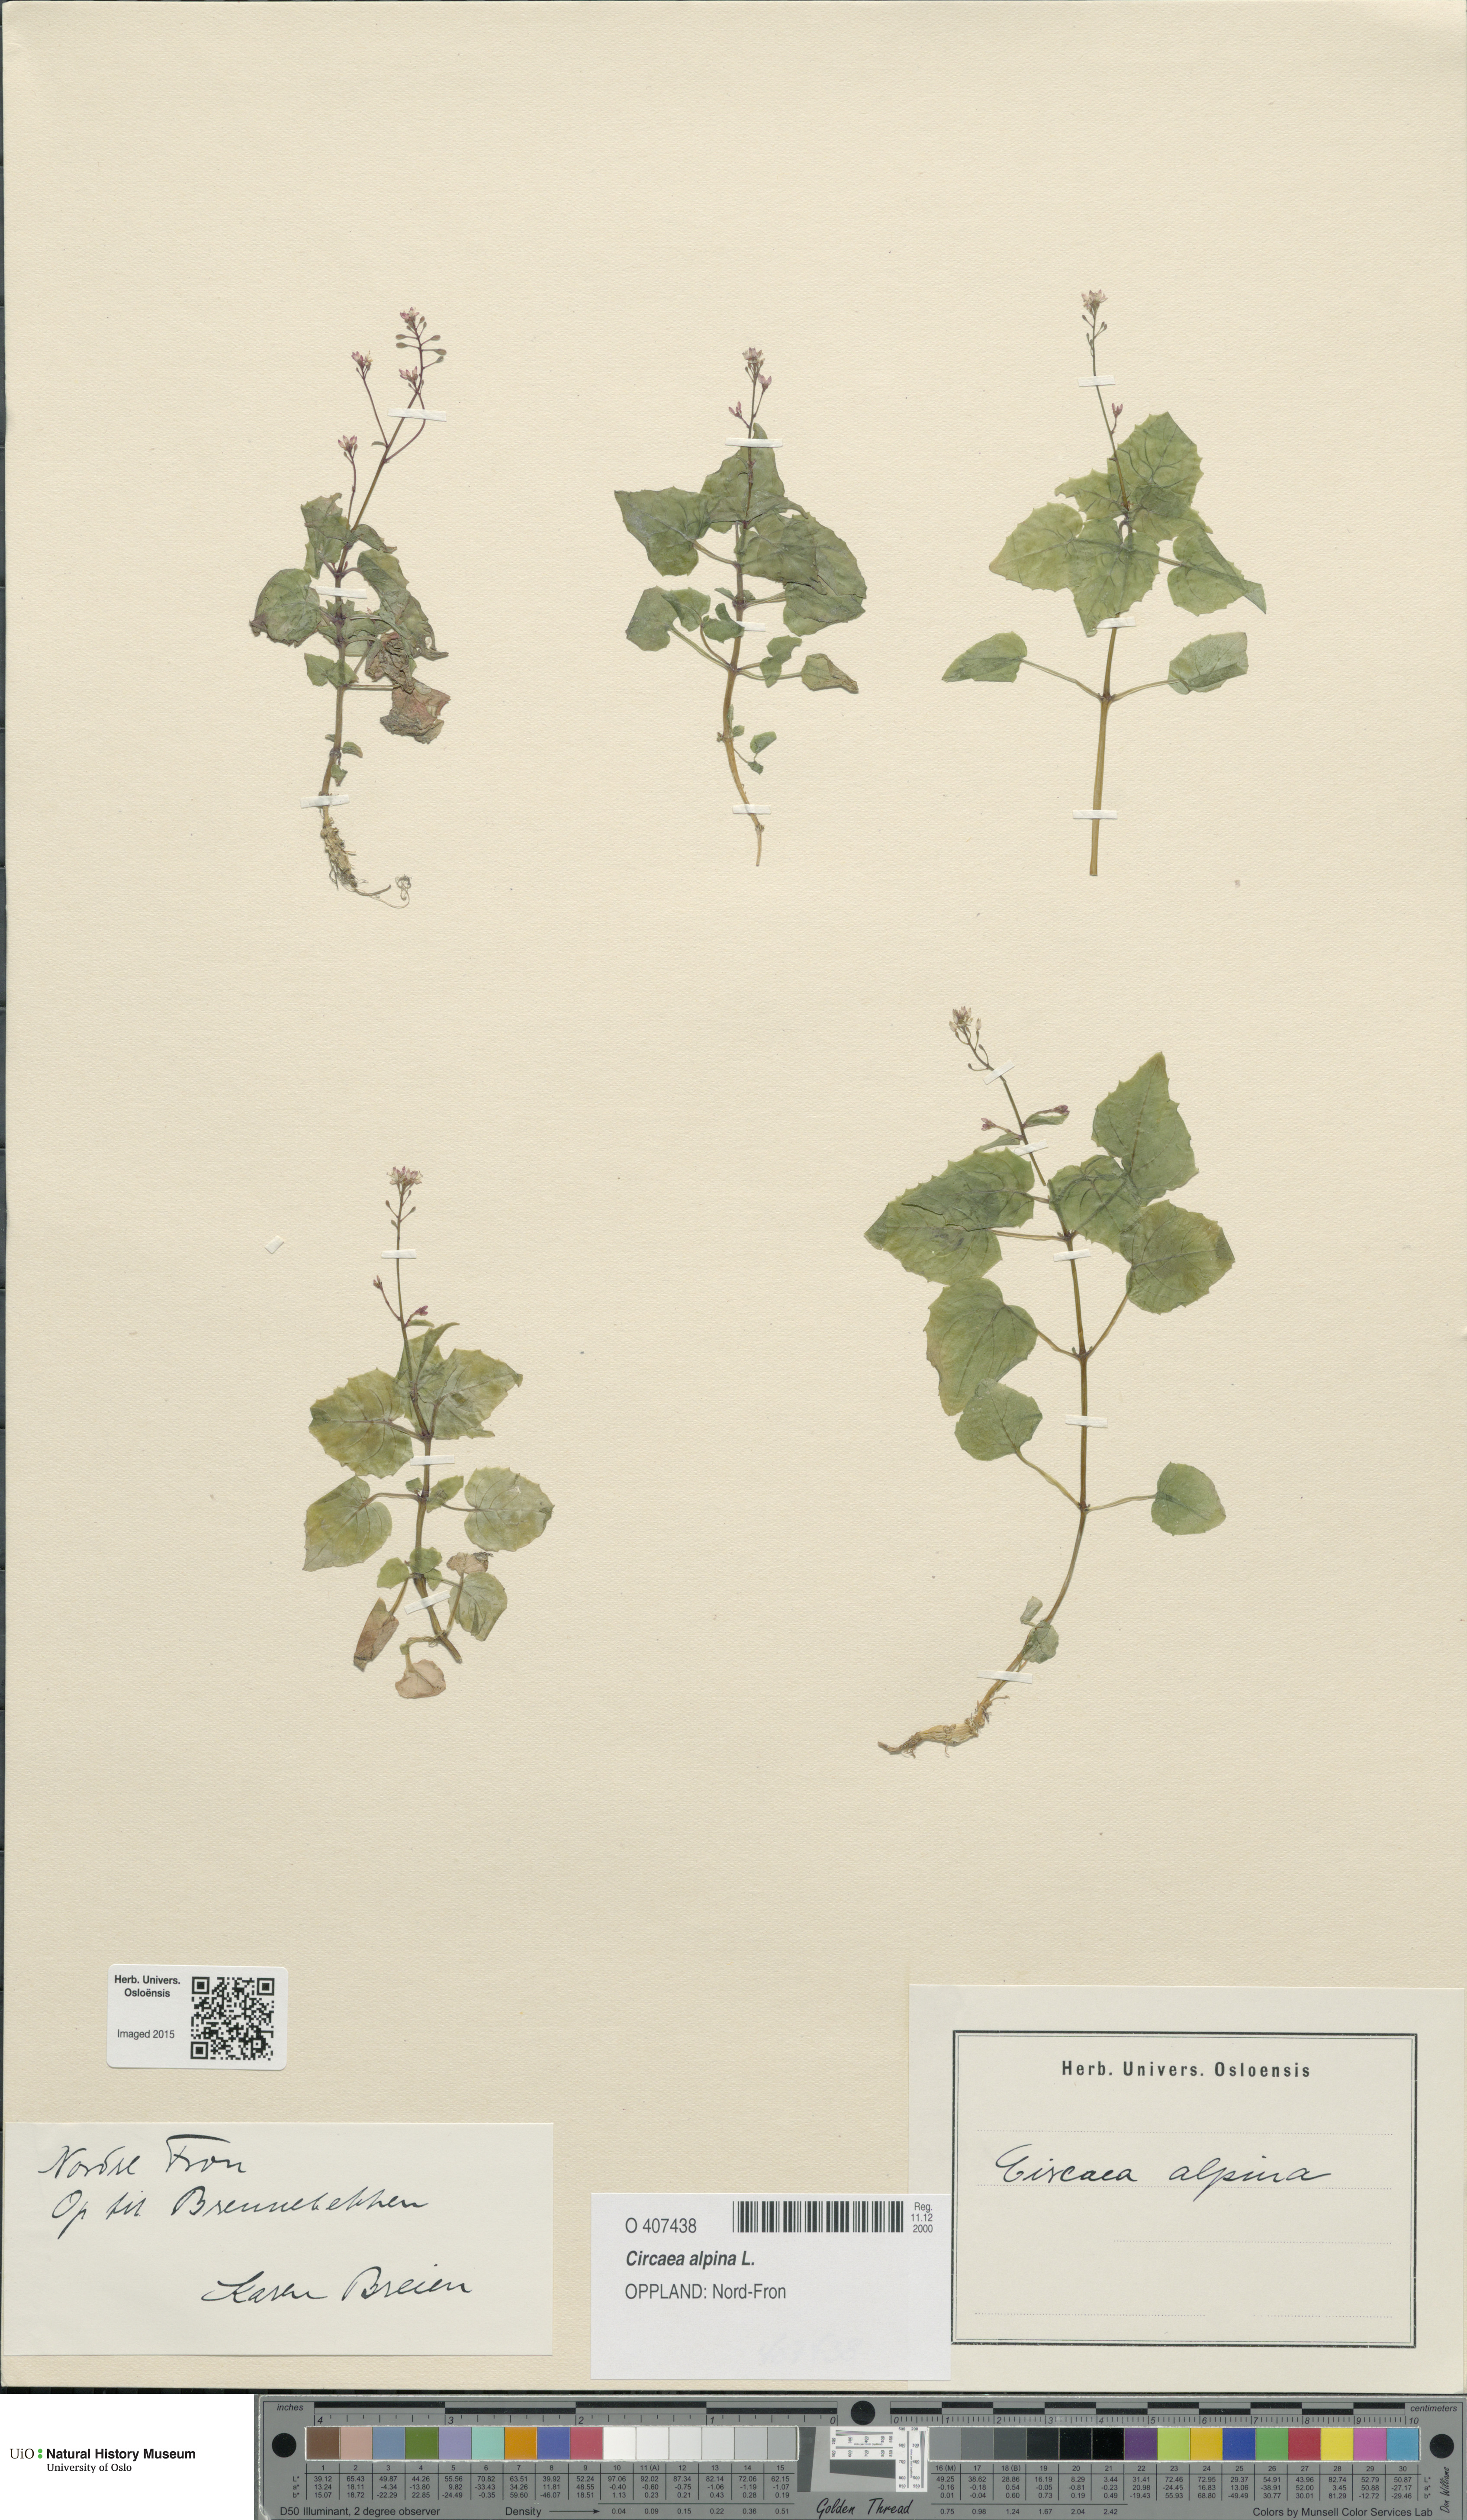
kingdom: Plantae
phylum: Tracheophyta
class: Magnoliopsida
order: Myrtales
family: Onagraceae
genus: Circaea
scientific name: Circaea alpina
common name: Alpine enchanter's-nightshade
